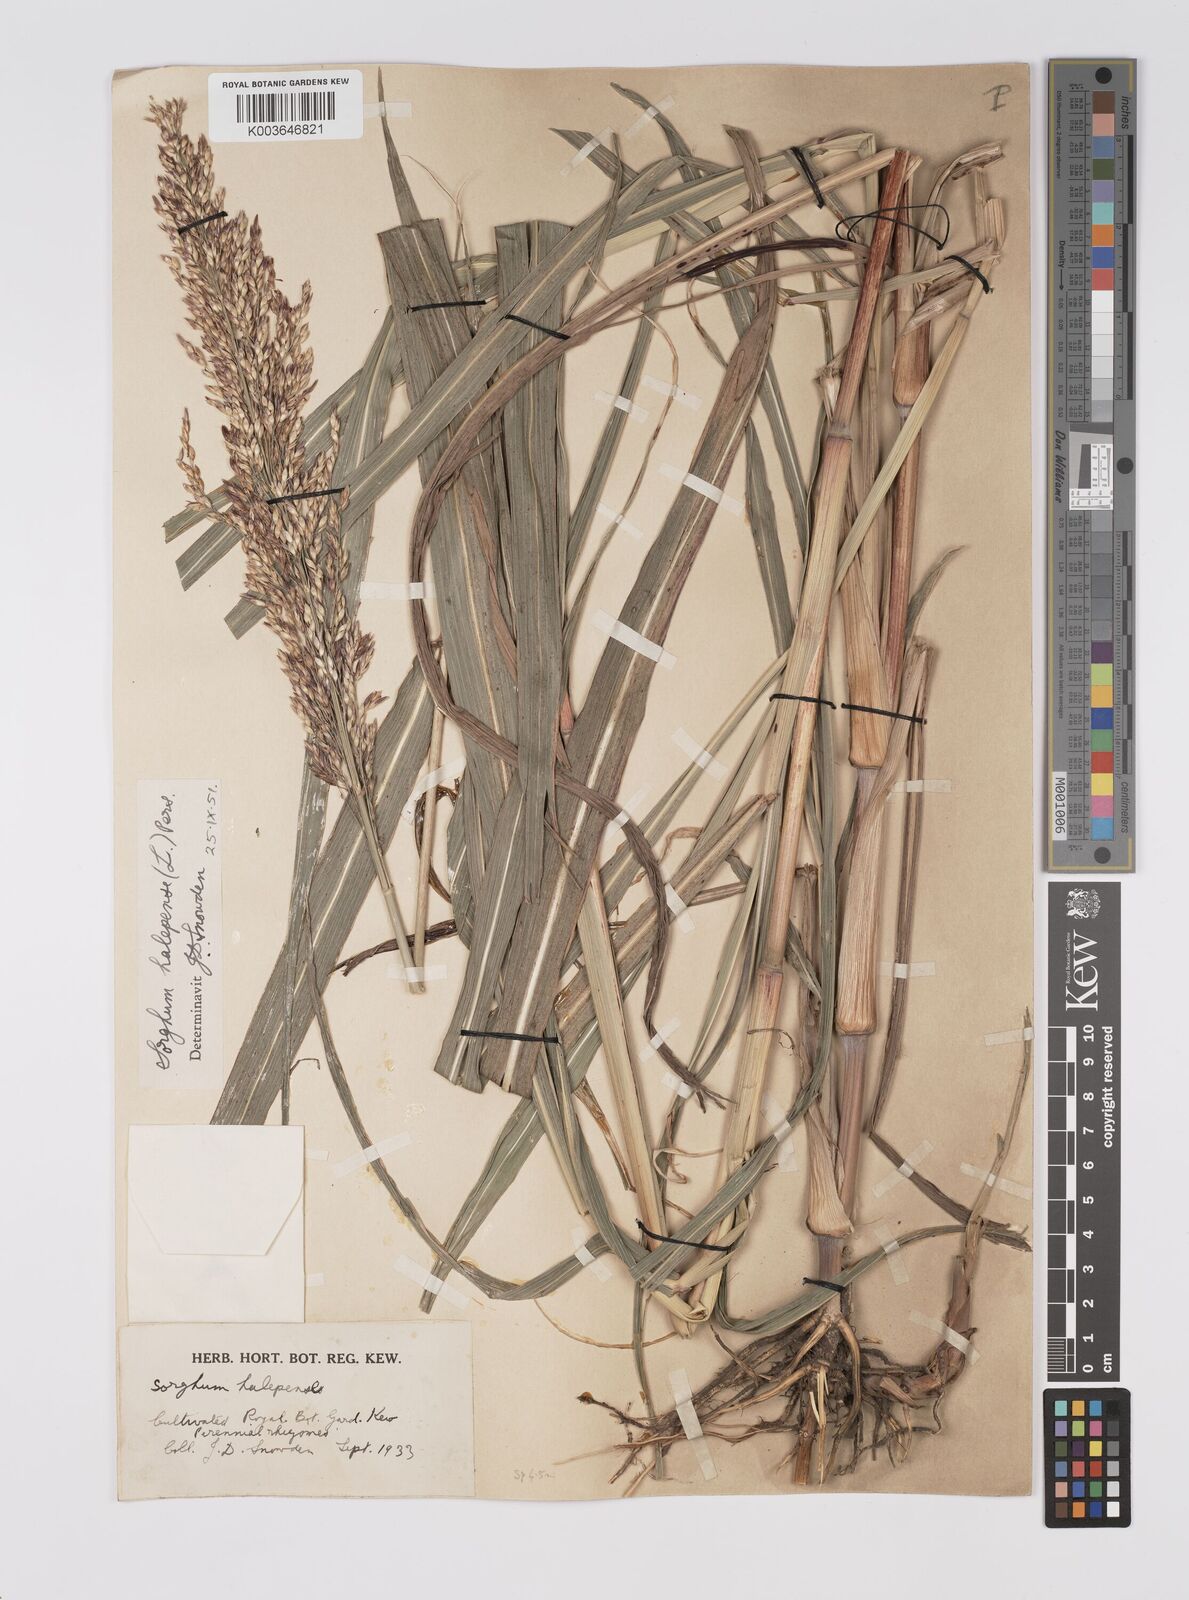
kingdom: Plantae
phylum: Tracheophyta
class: Liliopsida
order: Poales
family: Poaceae
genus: Sorghum
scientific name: Sorghum halepense
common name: Johnson-grass
